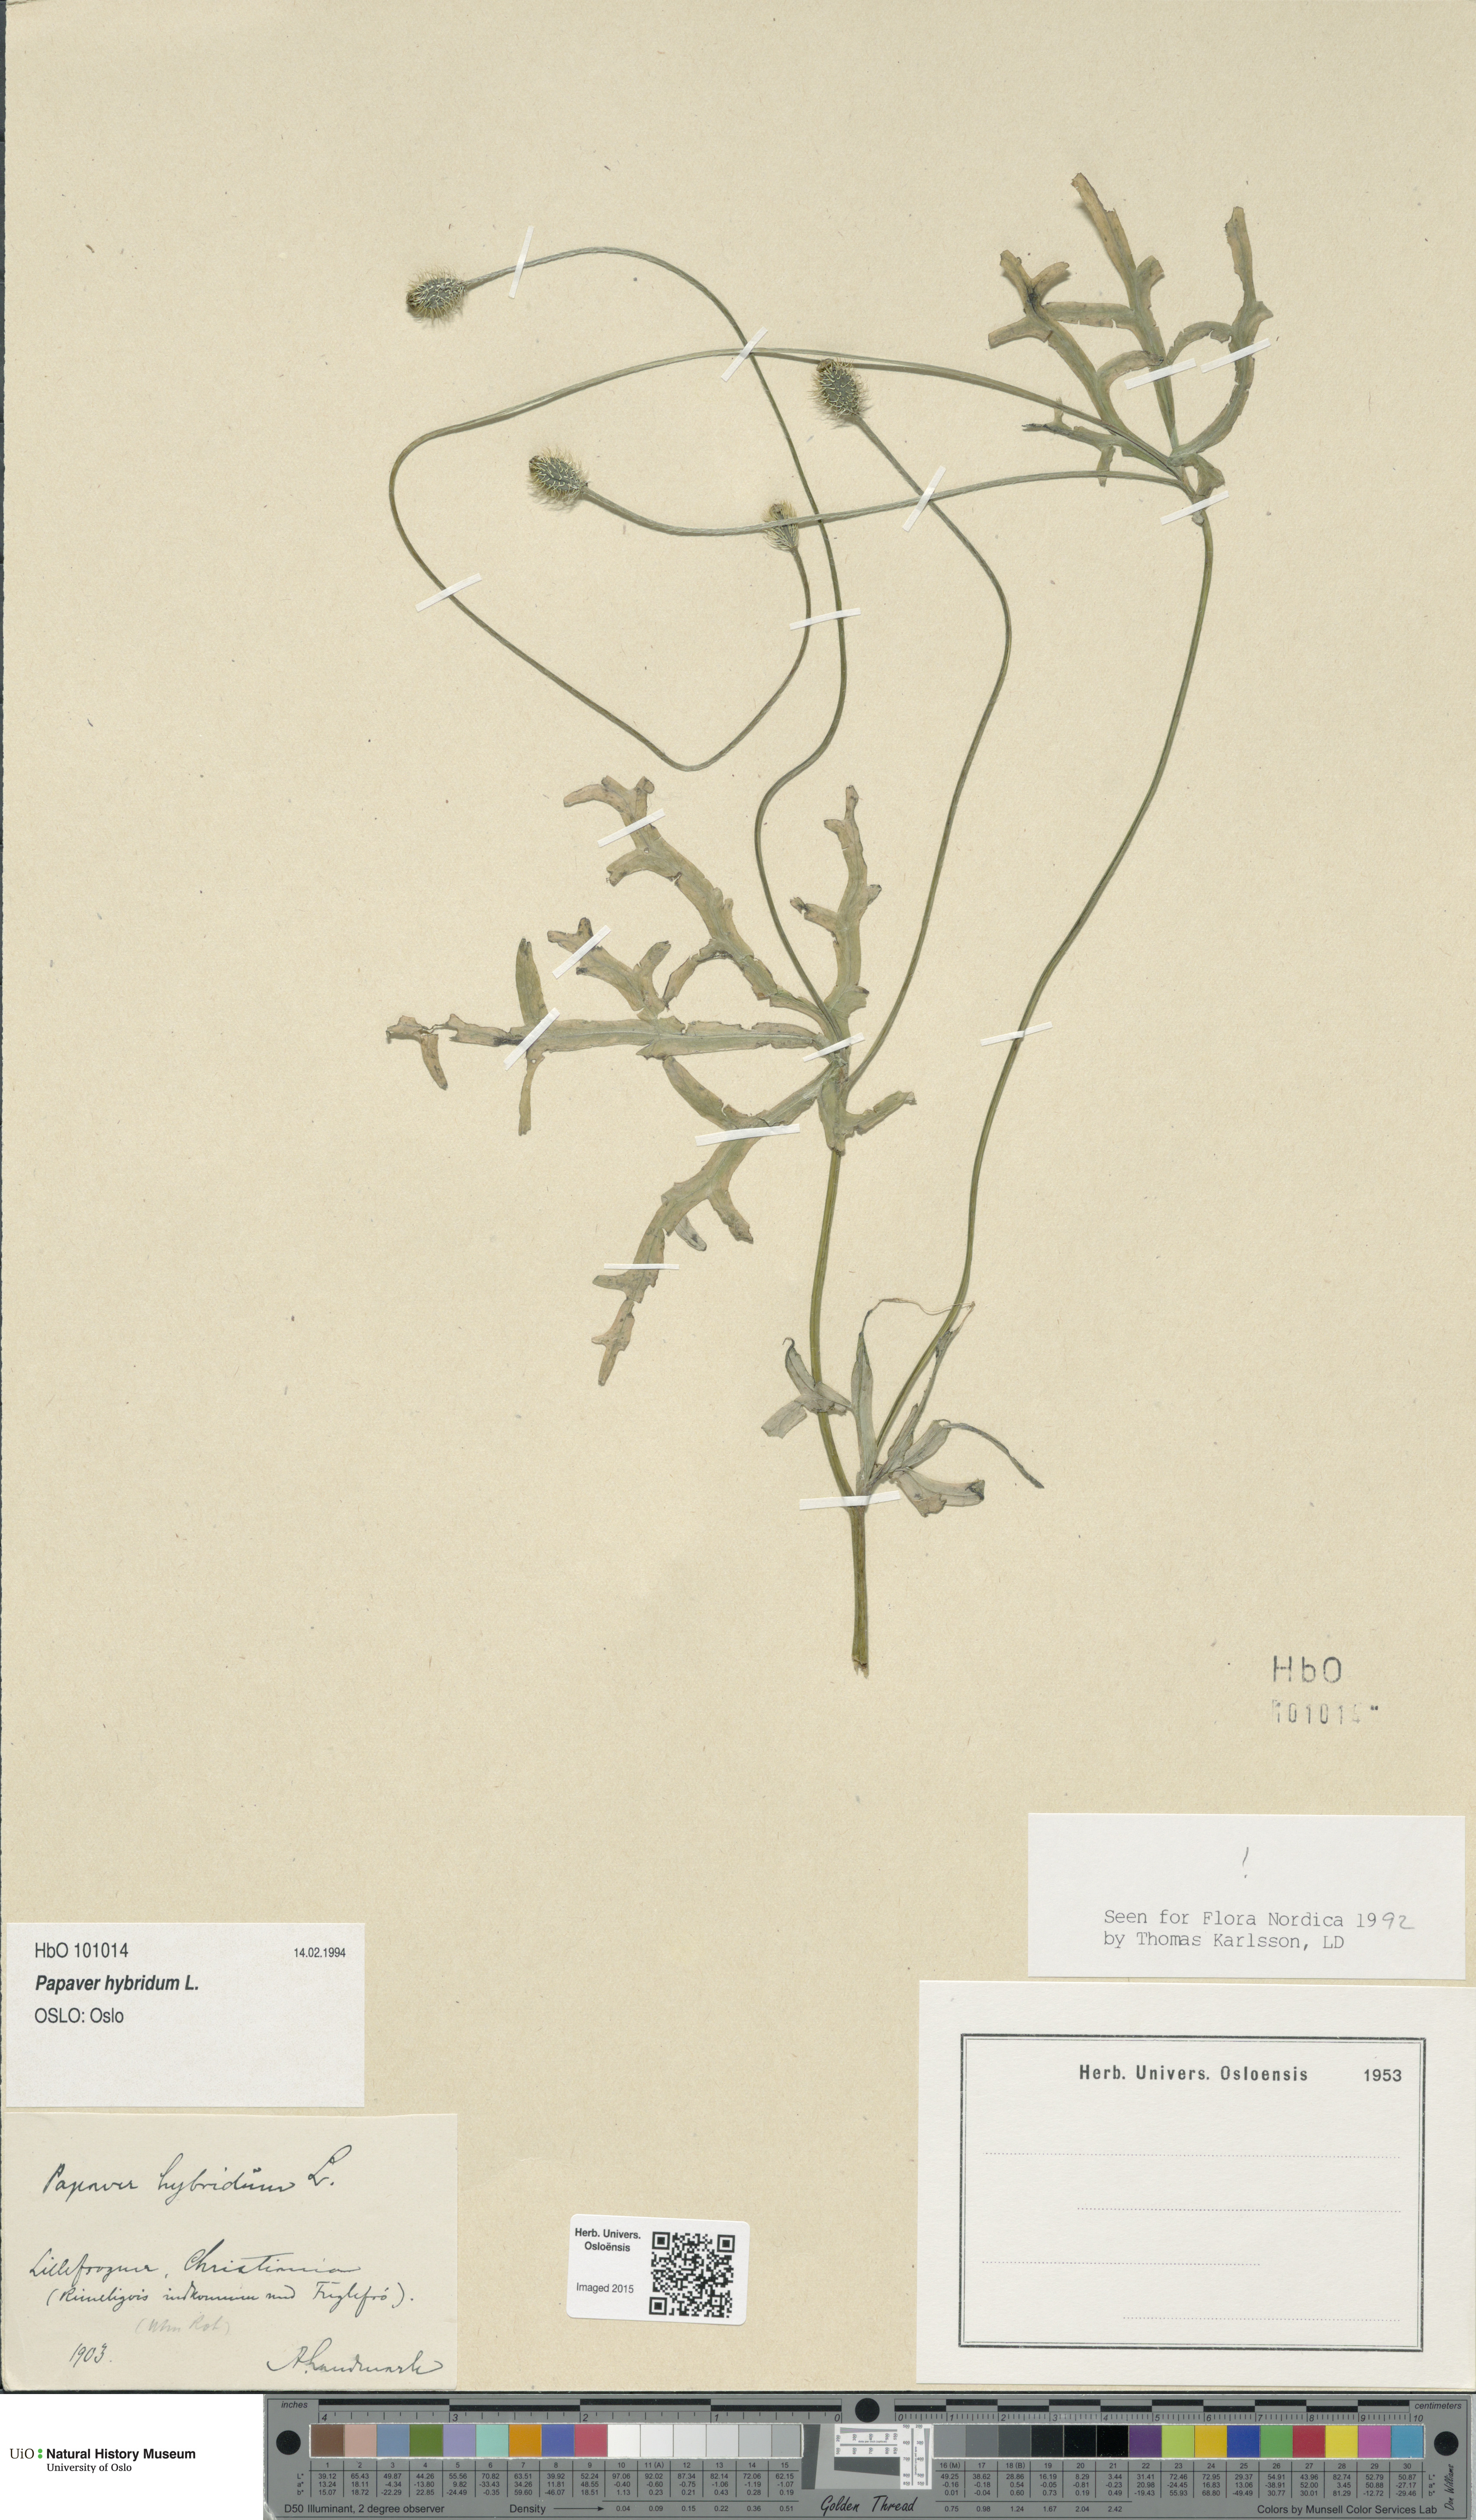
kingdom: Plantae
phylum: Tracheophyta
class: Magnoliopsida
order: Ranunculales
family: Papaveraceae
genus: Roemeria
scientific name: Roemeria hispida
